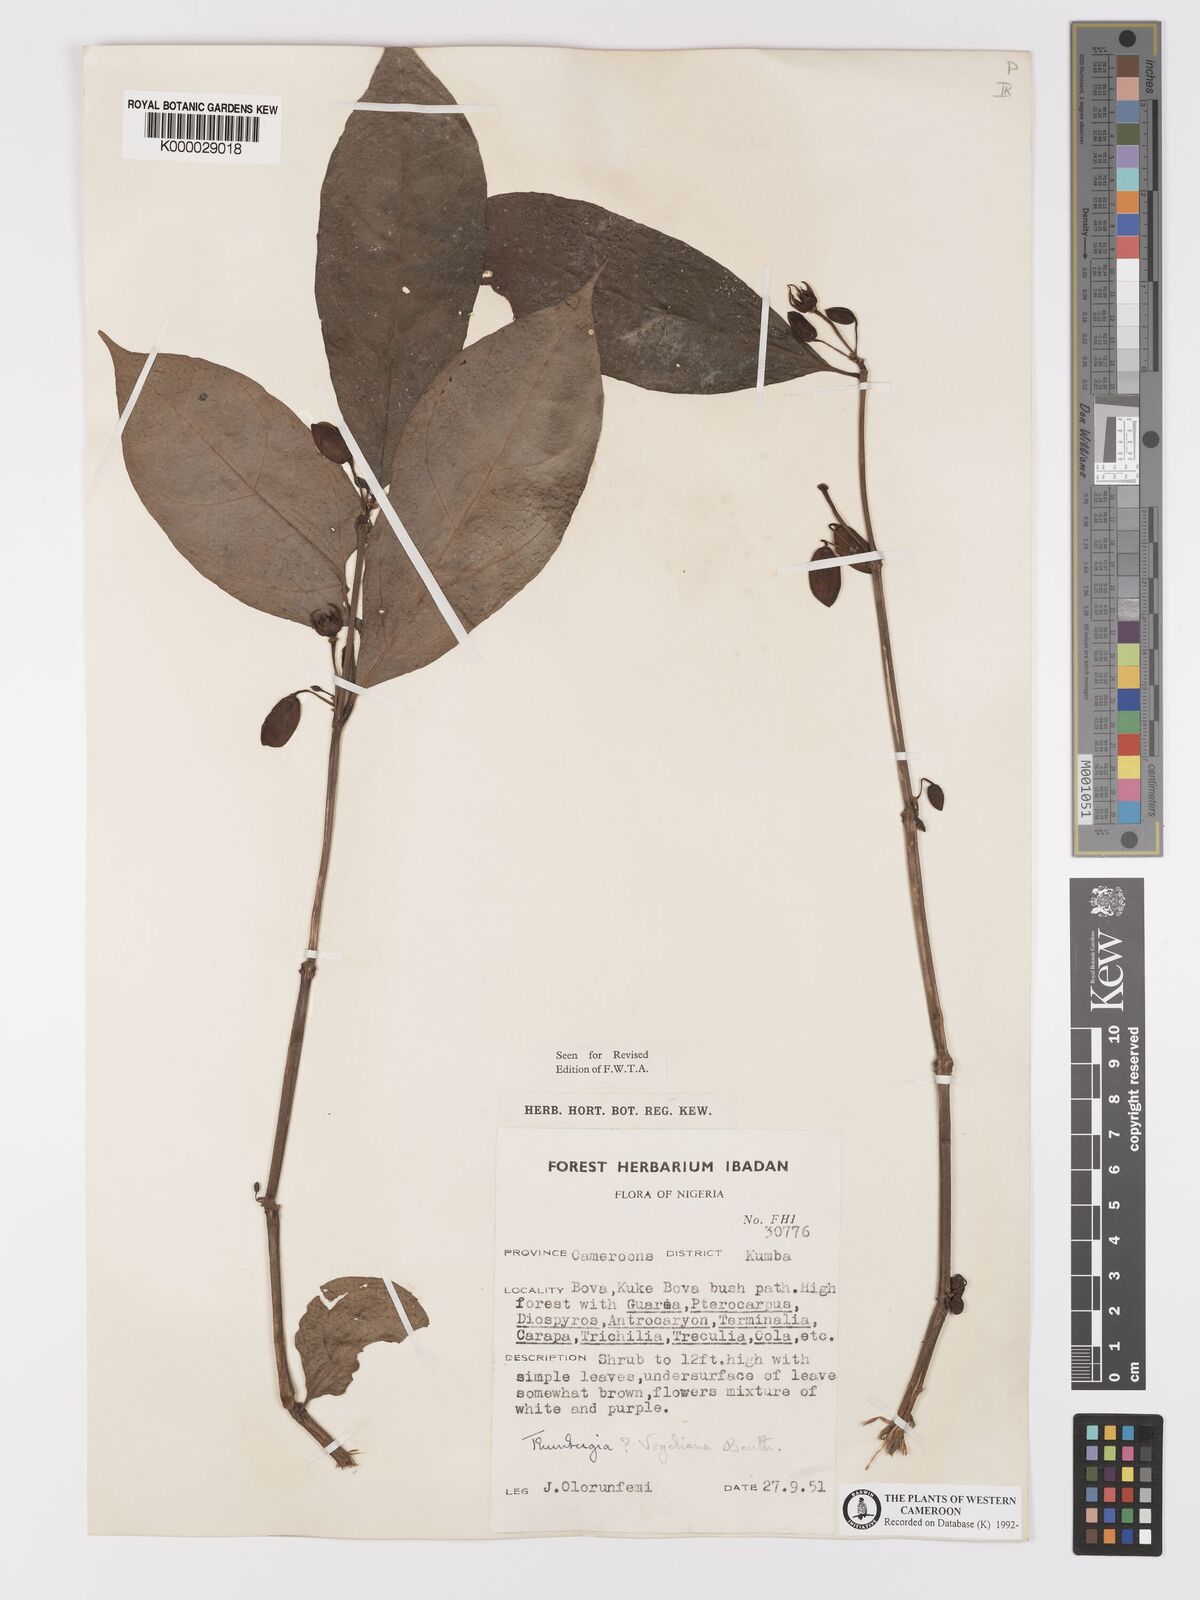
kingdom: Plantae
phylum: Tracheophyta
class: Magnoliopsida
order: Lamiales
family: Acanthaceae
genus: Thunbergia
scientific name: Thunbergia vogeliana
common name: Acanthaceae
